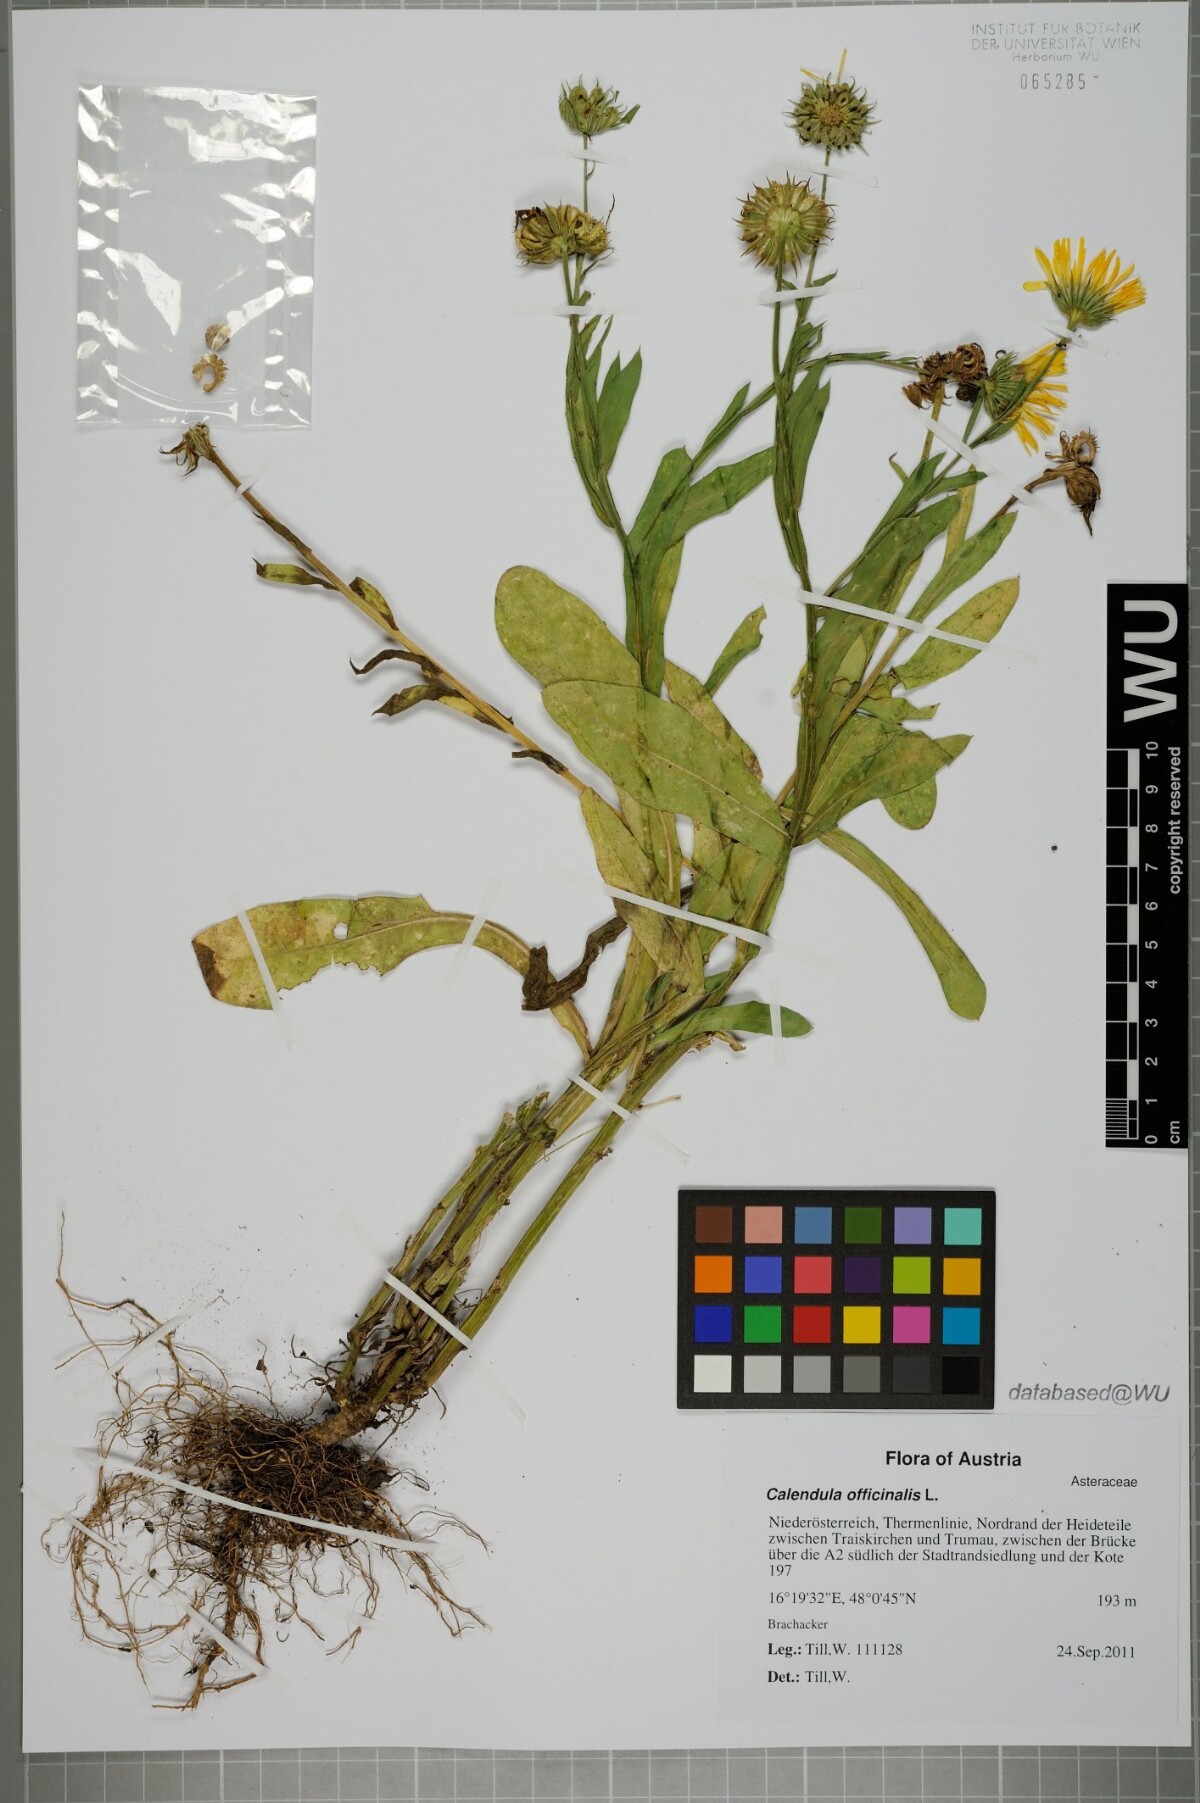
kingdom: Plantae
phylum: Tracheophyta
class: Magnoliopsida
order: Asterales
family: Asteraceae
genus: Calendula
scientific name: Calendula officinalis
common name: Pot marigold
